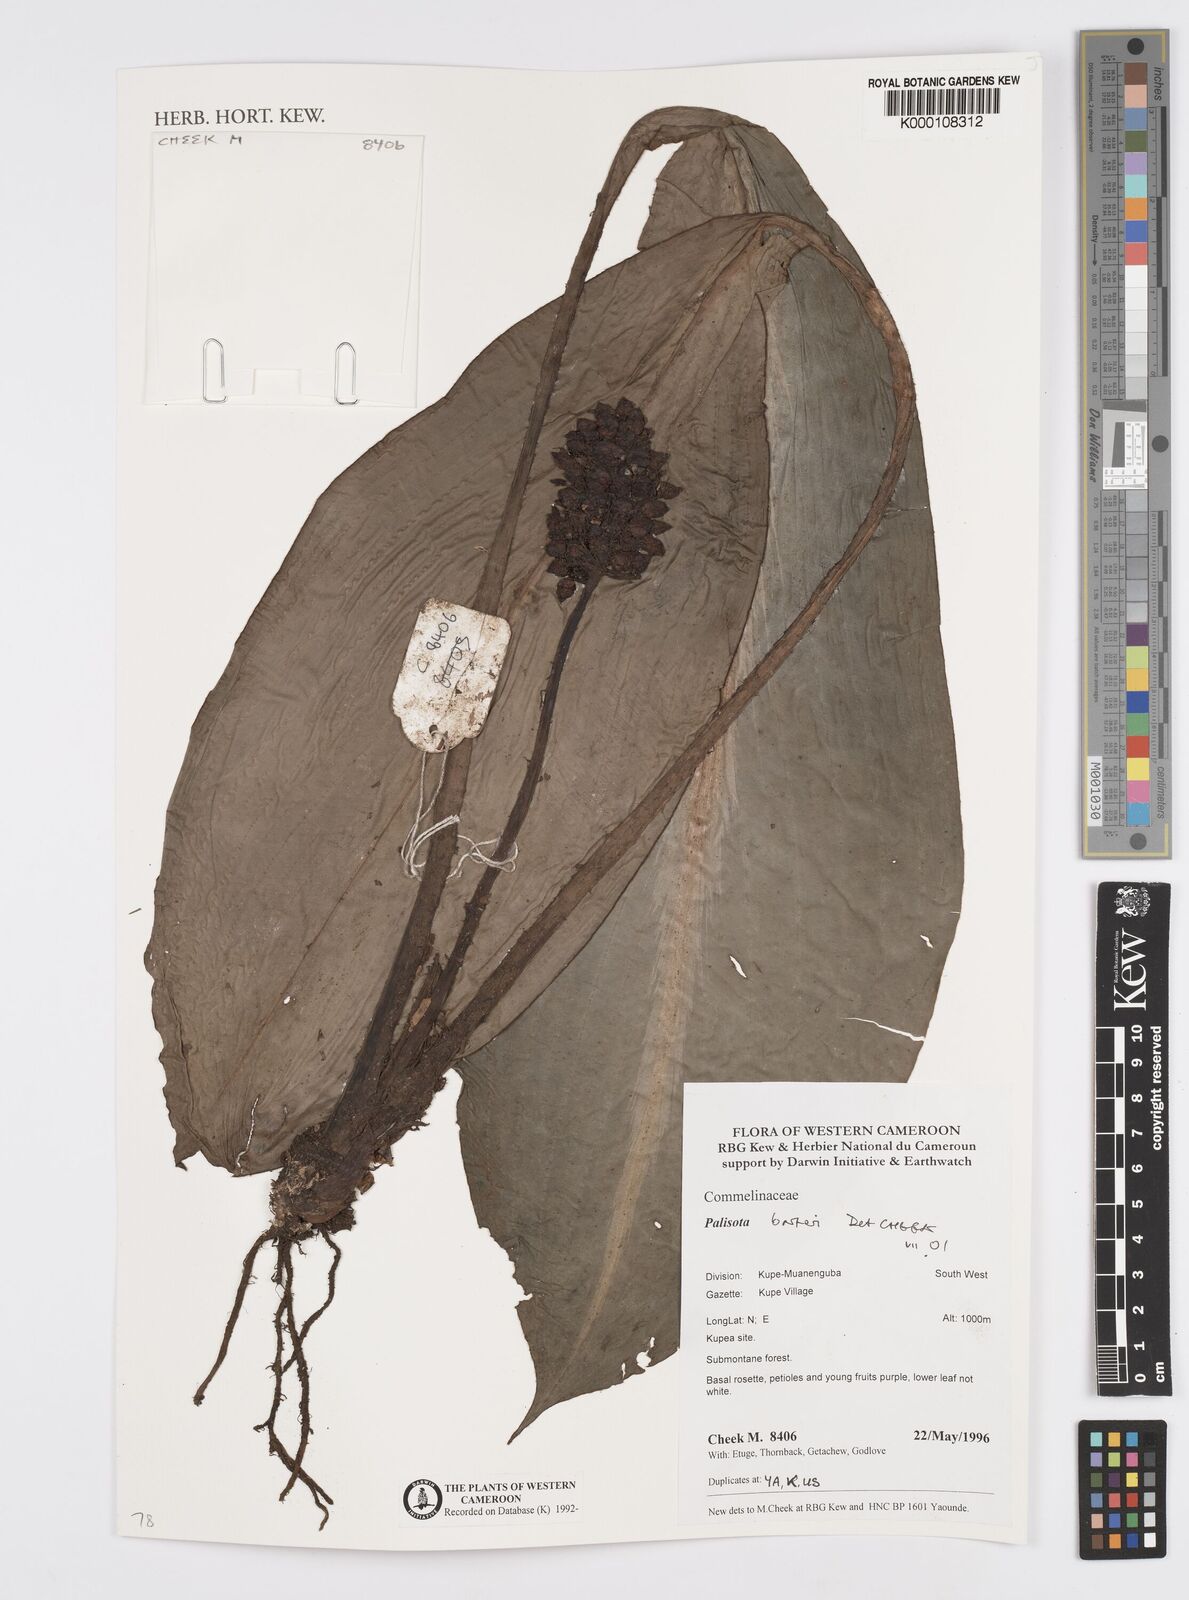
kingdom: Plantae
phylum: Tracheophyta
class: Liliopsida
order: Commelinales
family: Commelinaceae
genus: Palisota
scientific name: Palisota barteri
